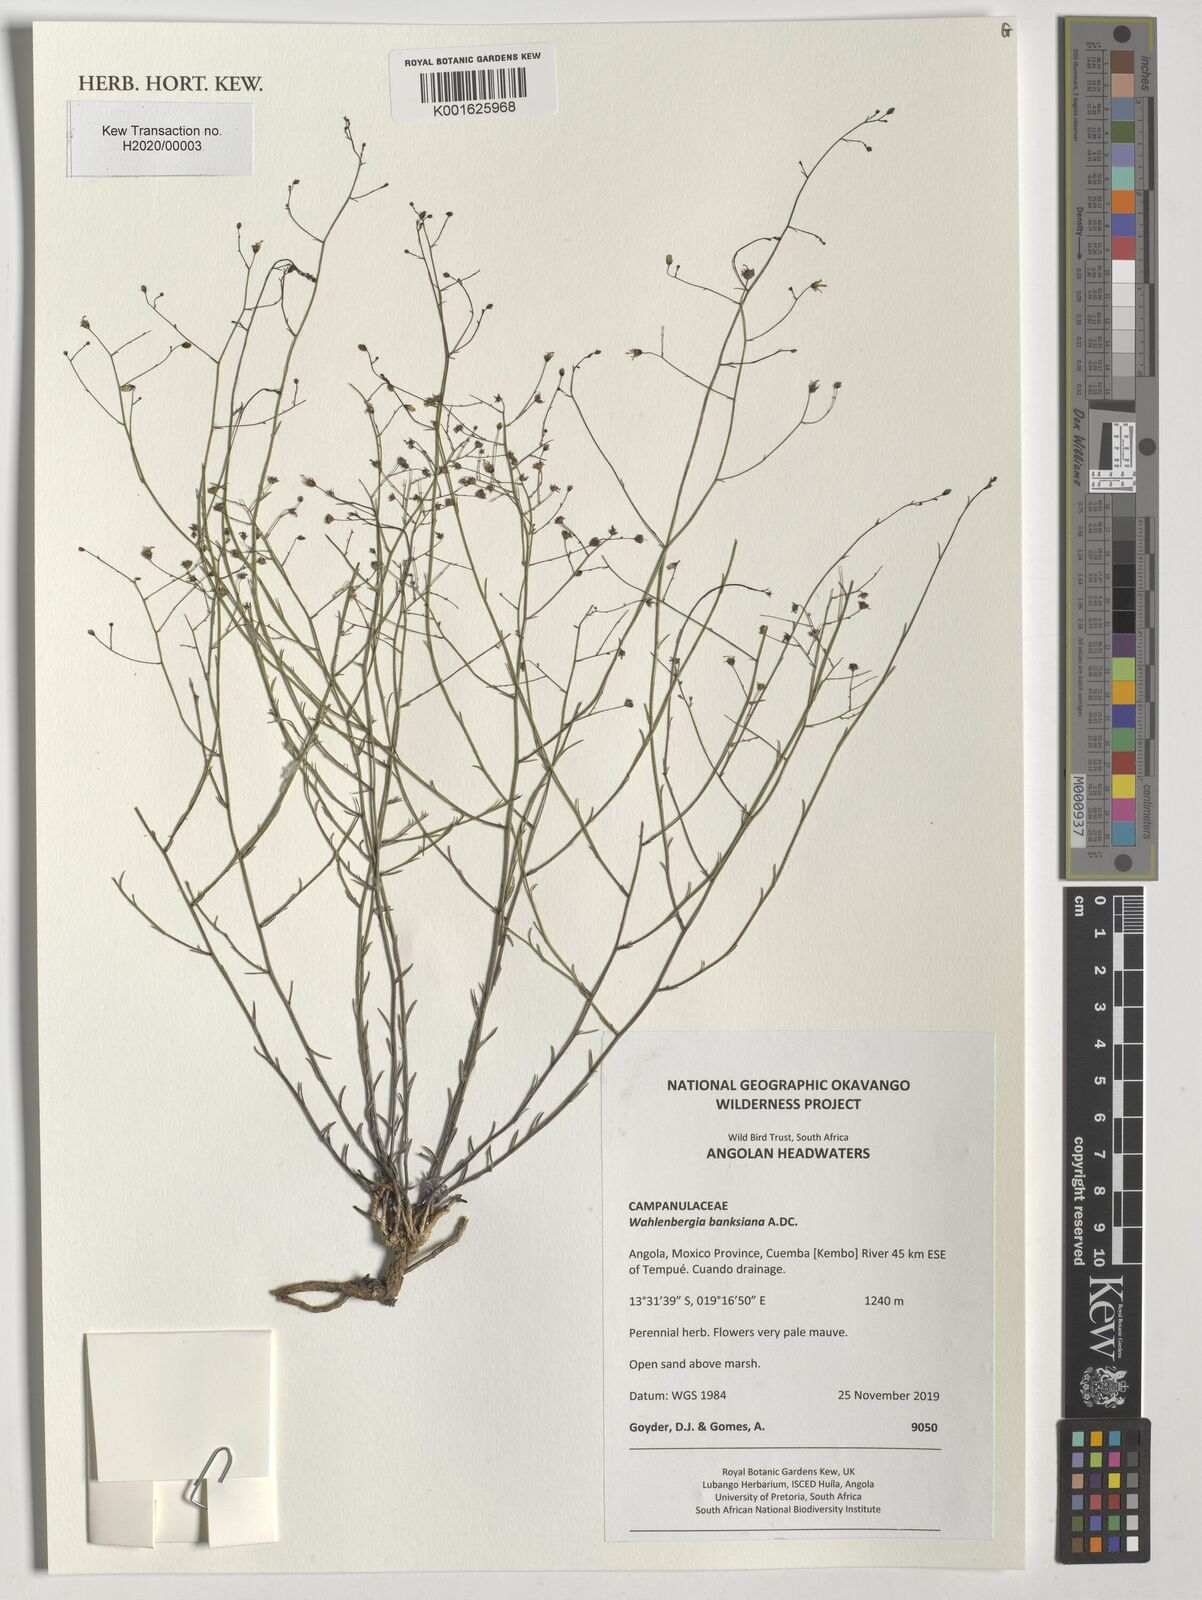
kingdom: Plantae
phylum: Tracheophyta
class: Magnoliopsida
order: Asterales
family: Campanulaceae
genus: Wahlenbergia
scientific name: Wahlenbergia banksiana
